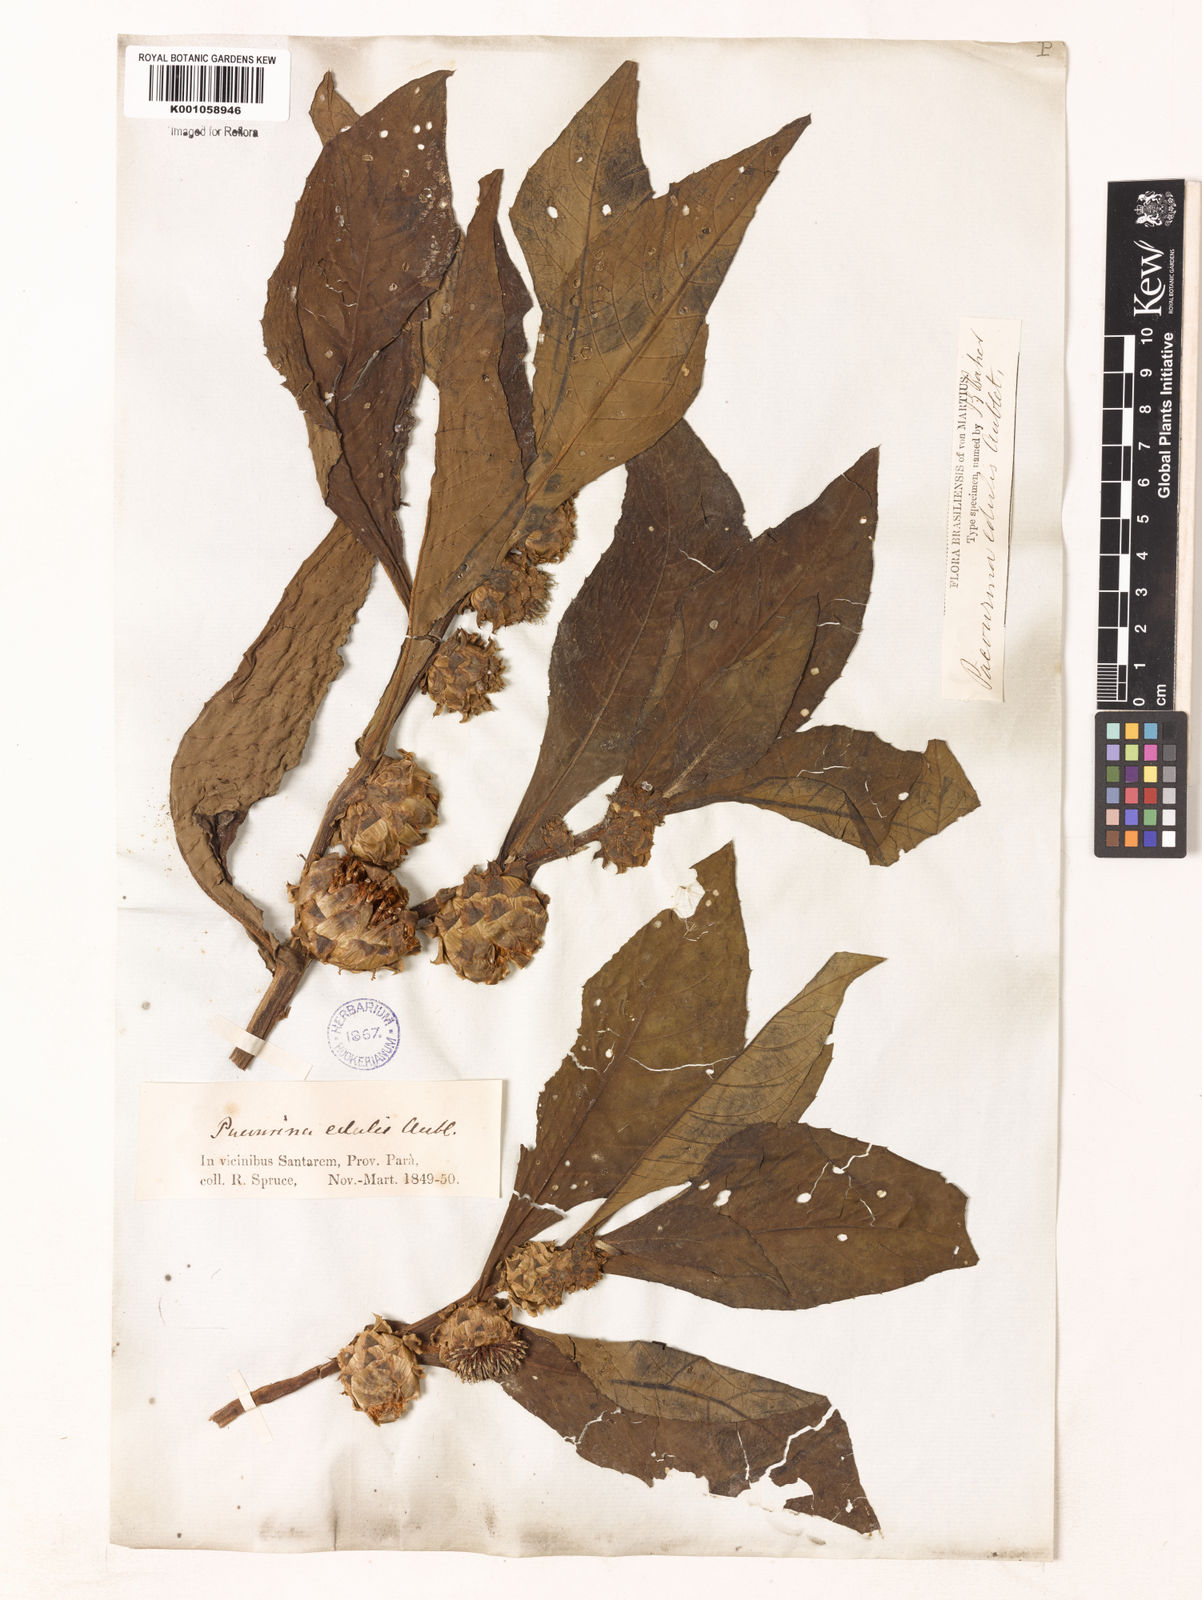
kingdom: Plantae
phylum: Tracheophyta
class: Magnoliopsida
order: Asterales
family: Asteraceae
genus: Pacourina
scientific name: Pacourina
